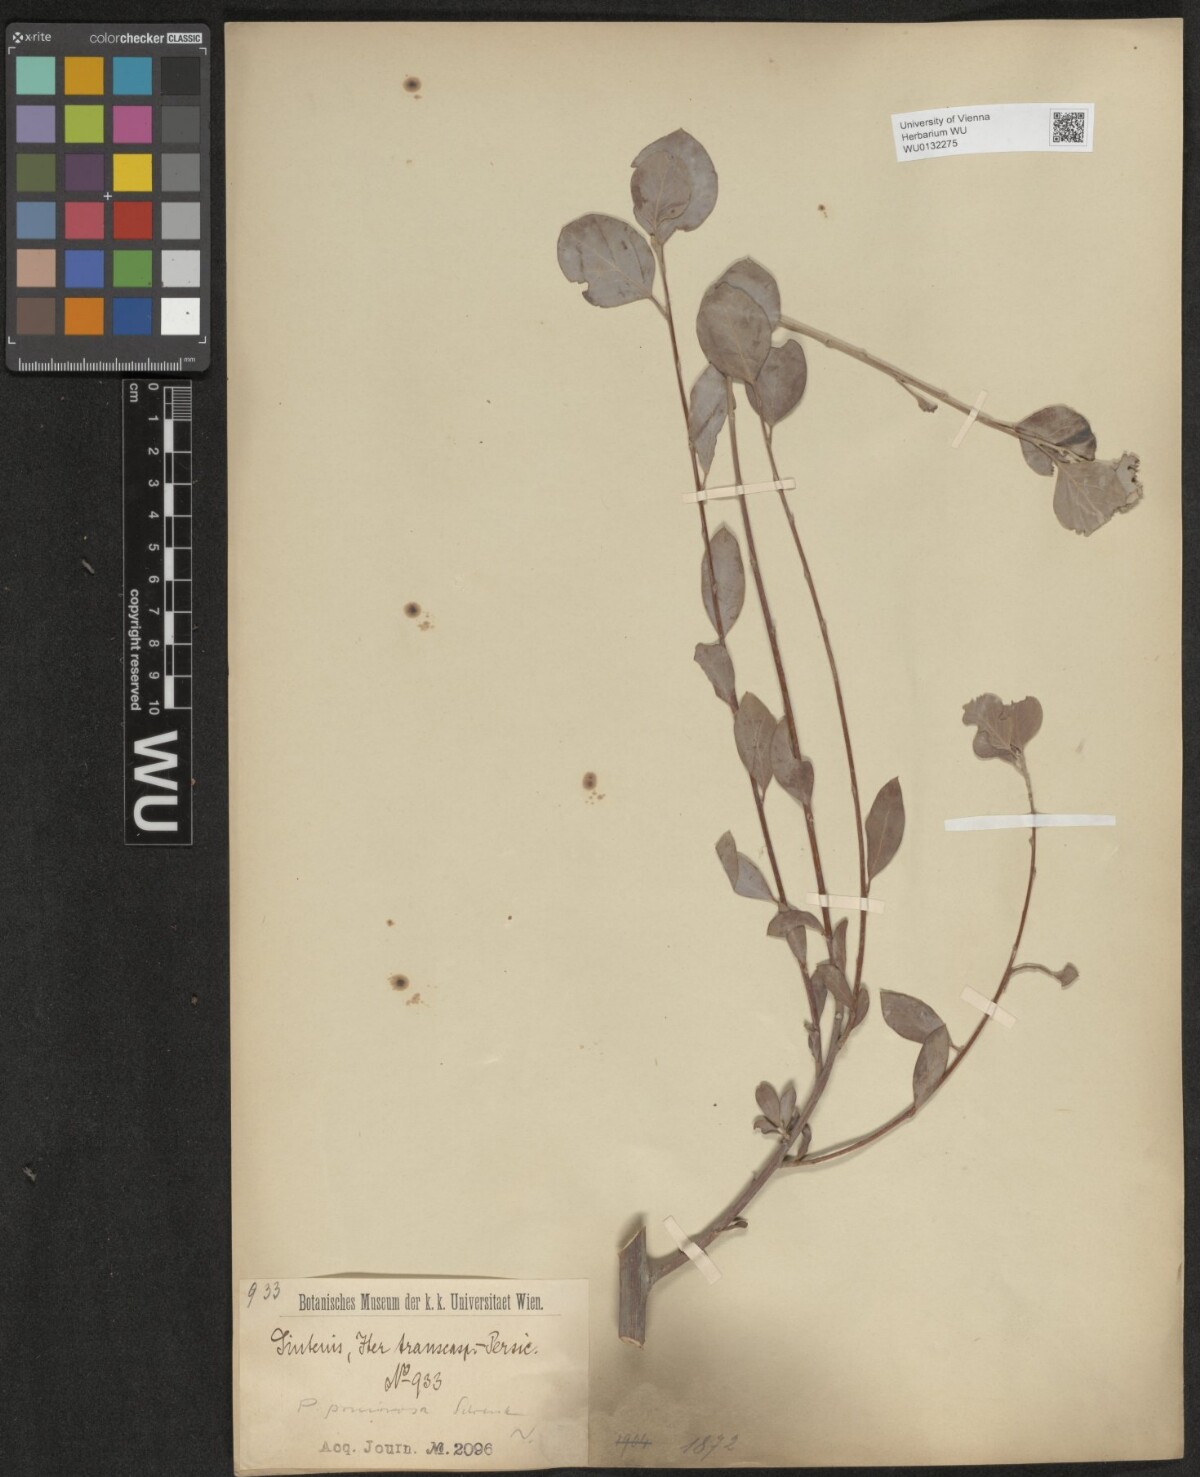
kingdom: Plantae
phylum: Tracheophyta
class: Magnoliopsida
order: Malpighiales
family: Salicaceae
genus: Populus
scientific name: Populus pruinosa
